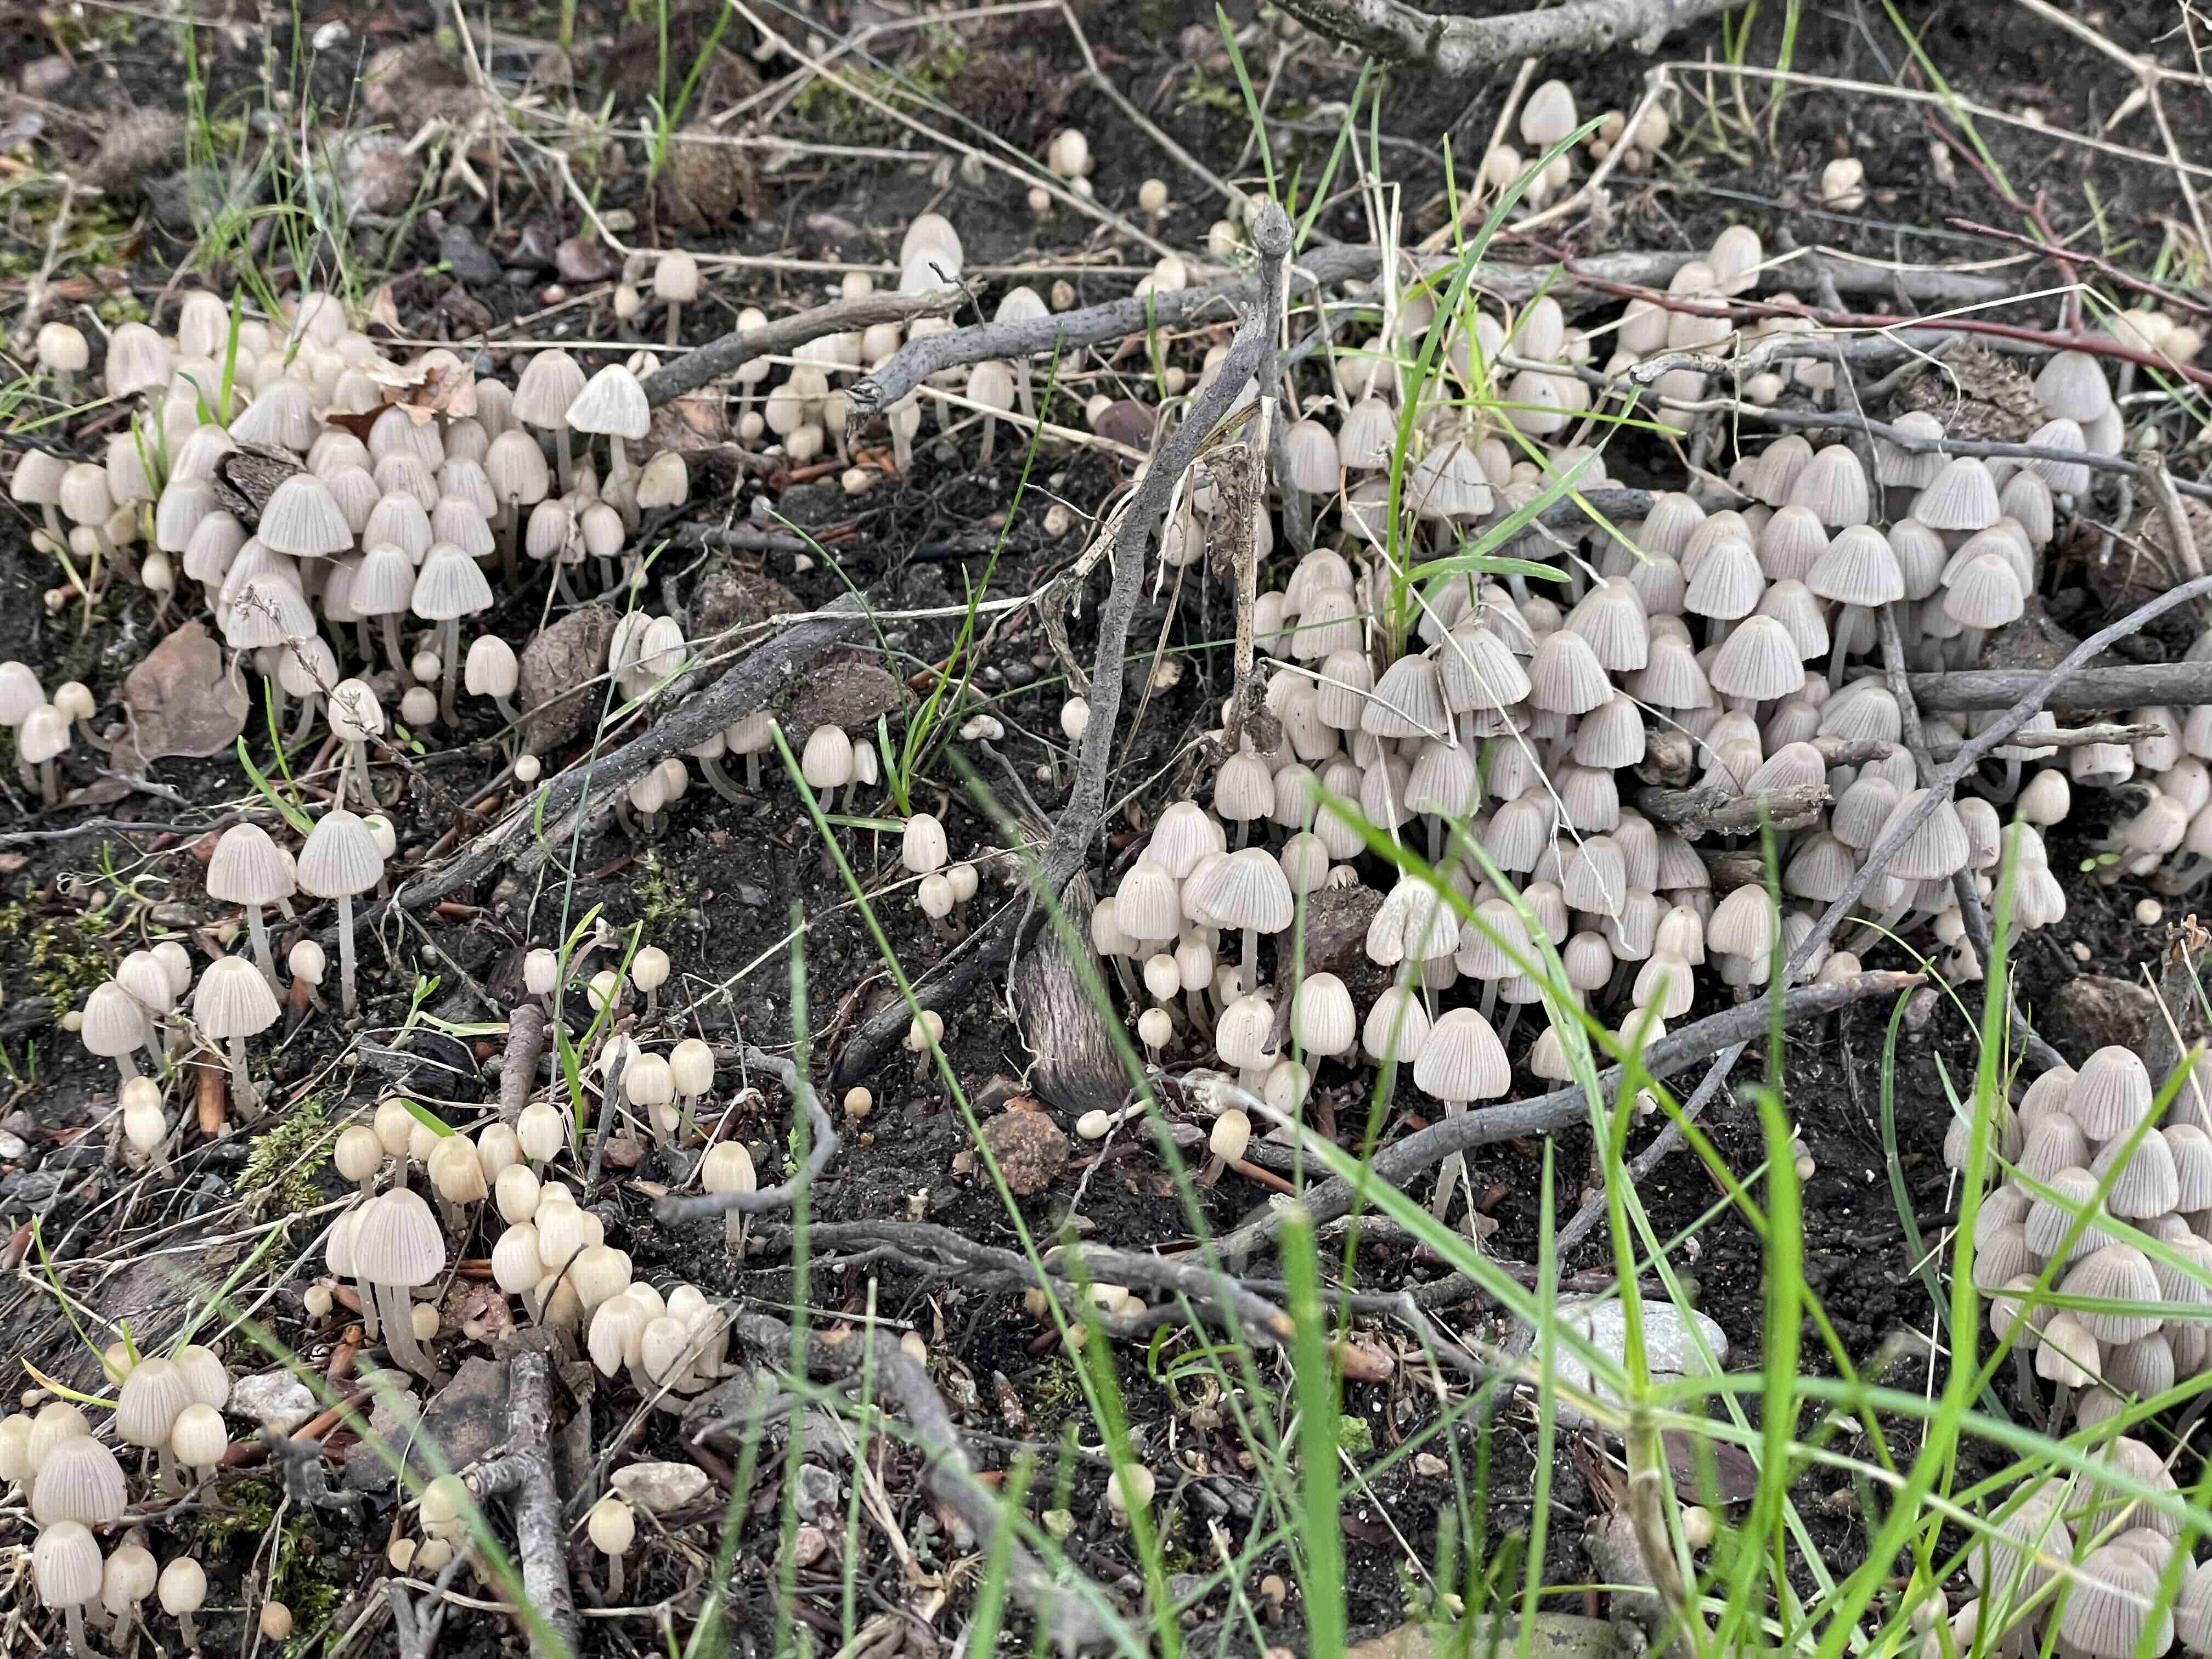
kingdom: Fungi
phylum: Basidiomycota
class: Agaricomycetes
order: Agaricales
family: Psathyrellaceae
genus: Coprinellus
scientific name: Coprinellus disseminatus
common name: bredsået blækhat
